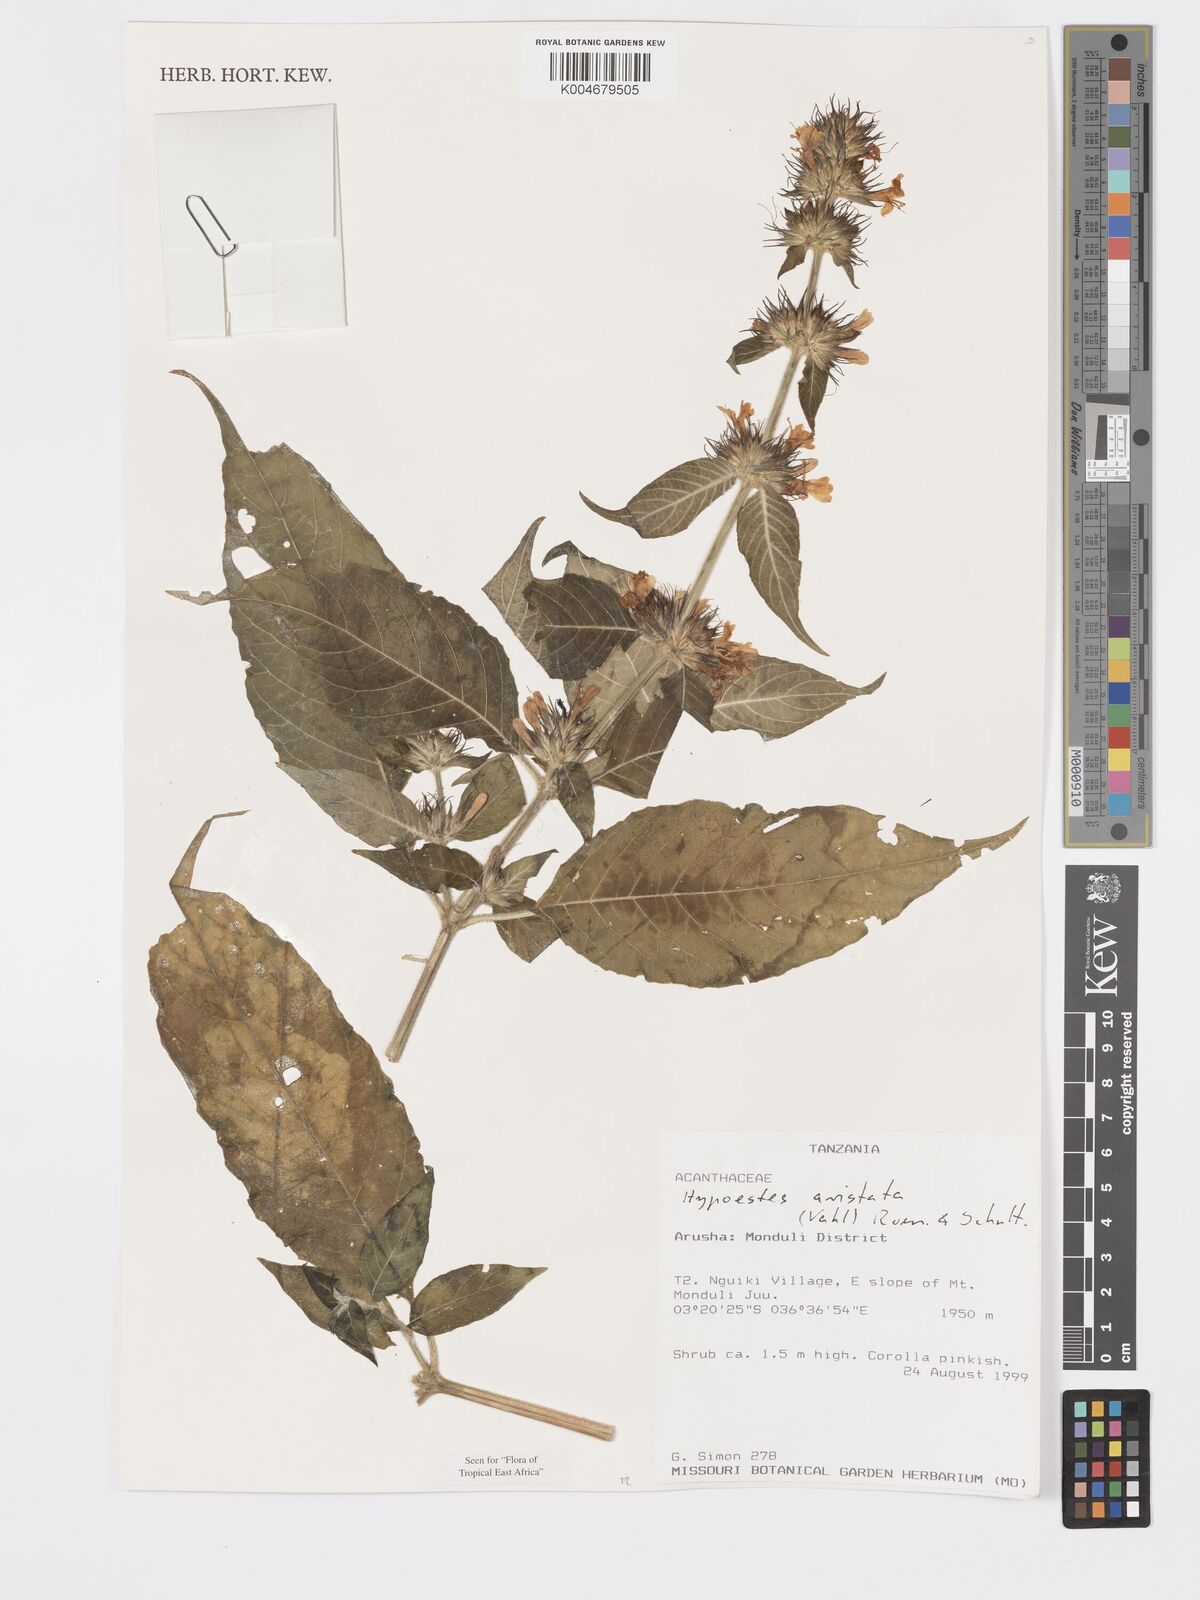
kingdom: Plantae
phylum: Tracheophyta
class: Magnoliopsida
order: Lamiales
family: Acanthaceae
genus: Hypoestes
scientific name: Hypoestes aristata
